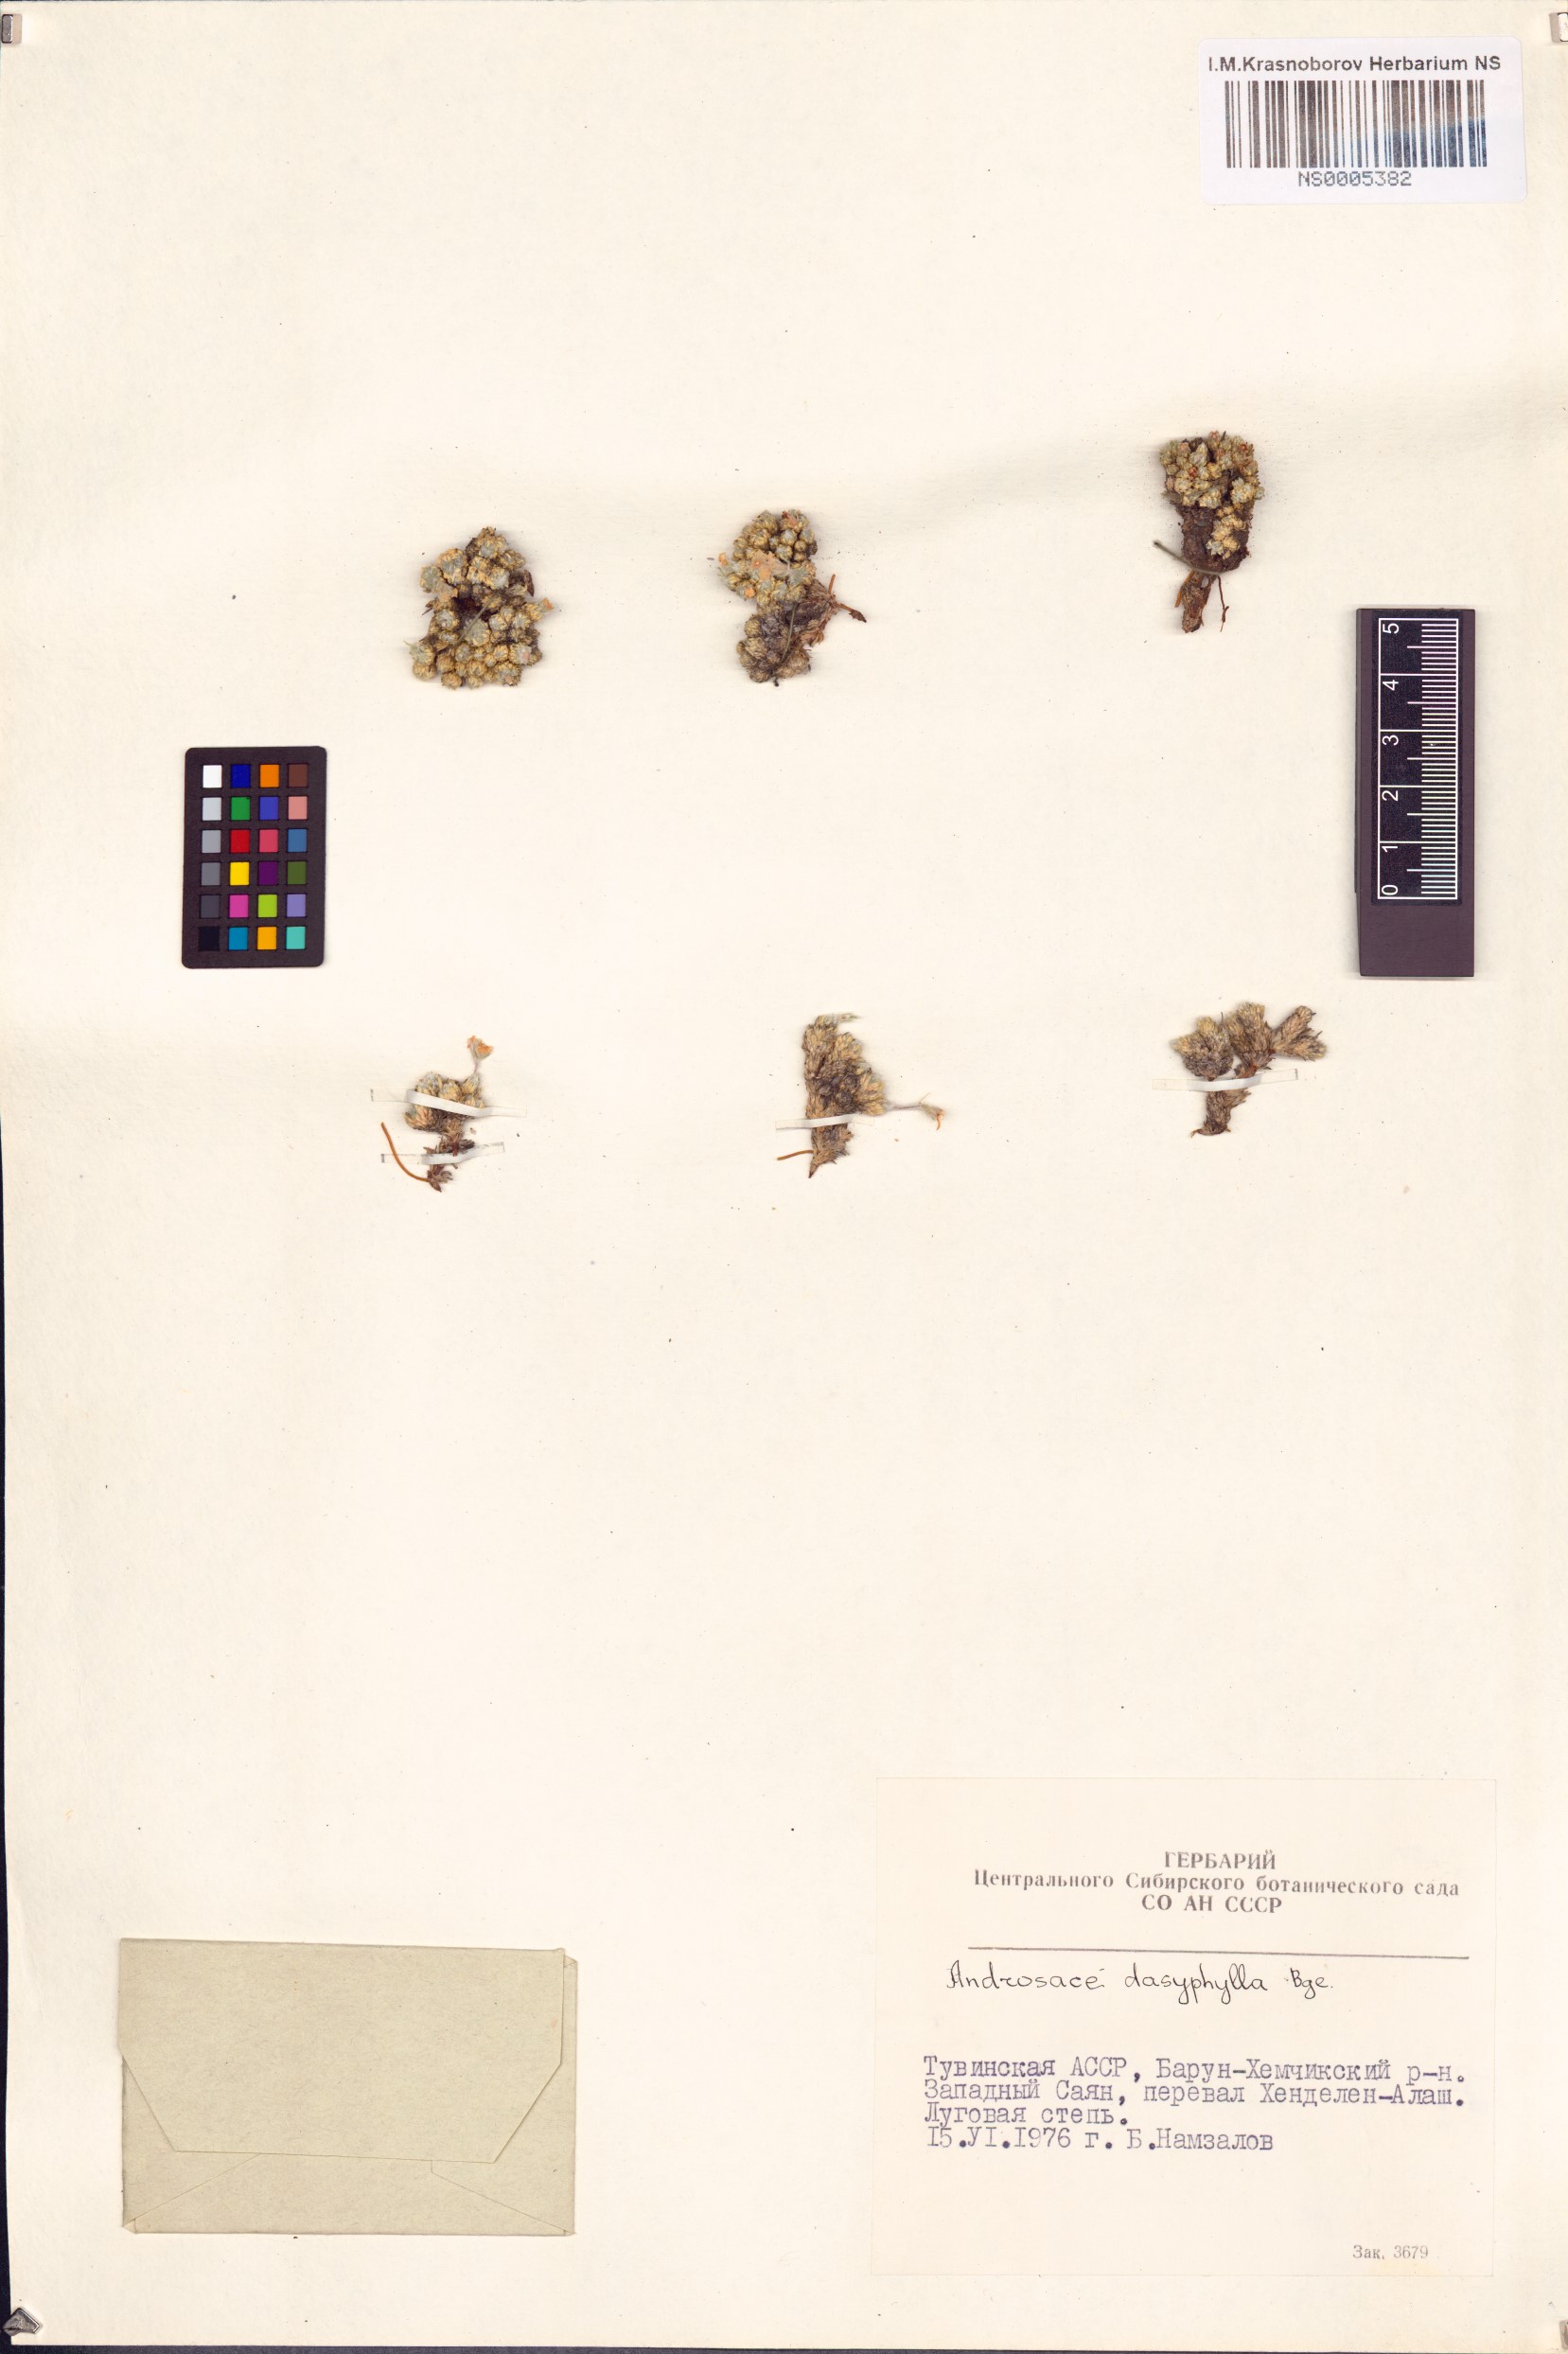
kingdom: Plantae
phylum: Tracheophyta
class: Magnoliopsida
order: Ericales
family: Primulaceae
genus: Androsace
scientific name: Androsace dasyphylla
